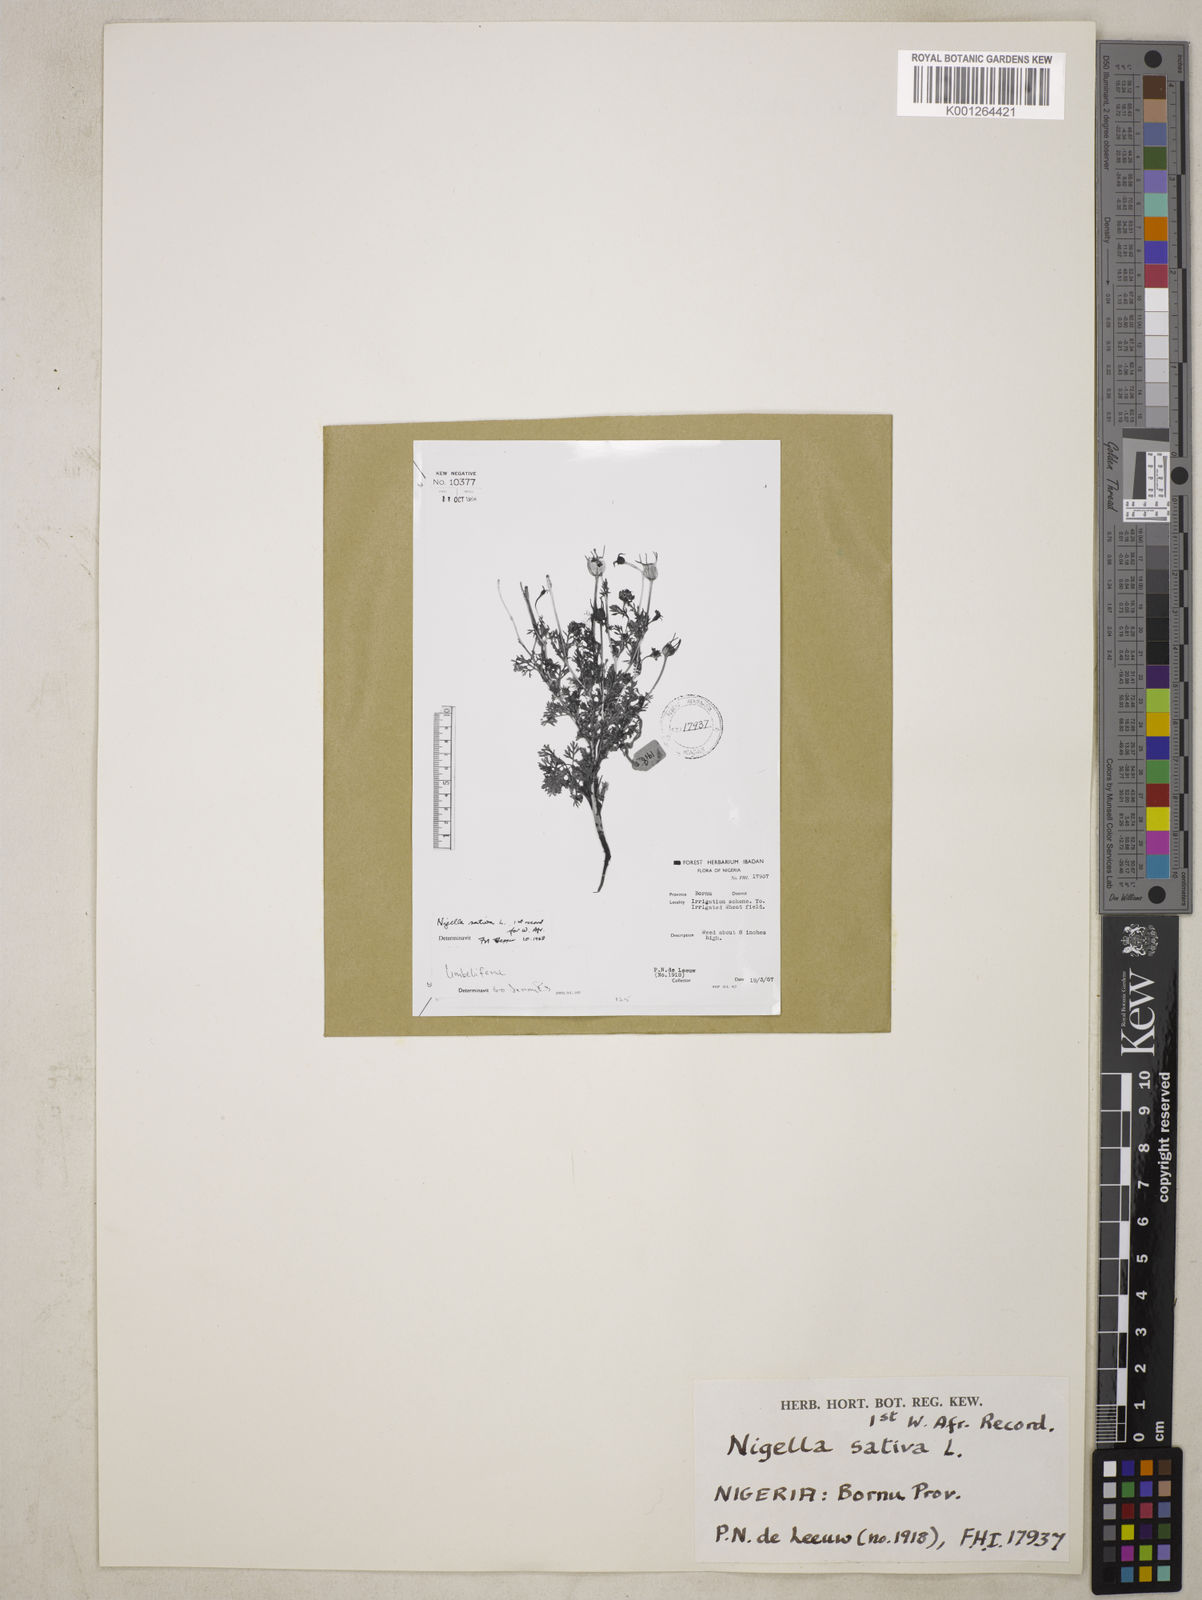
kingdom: Plantae
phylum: Tracheophyta
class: Magnoliopsida
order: Ranunculales
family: Ranunculaceae
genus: Nigella
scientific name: Nigella sativa
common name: Black-cumin
